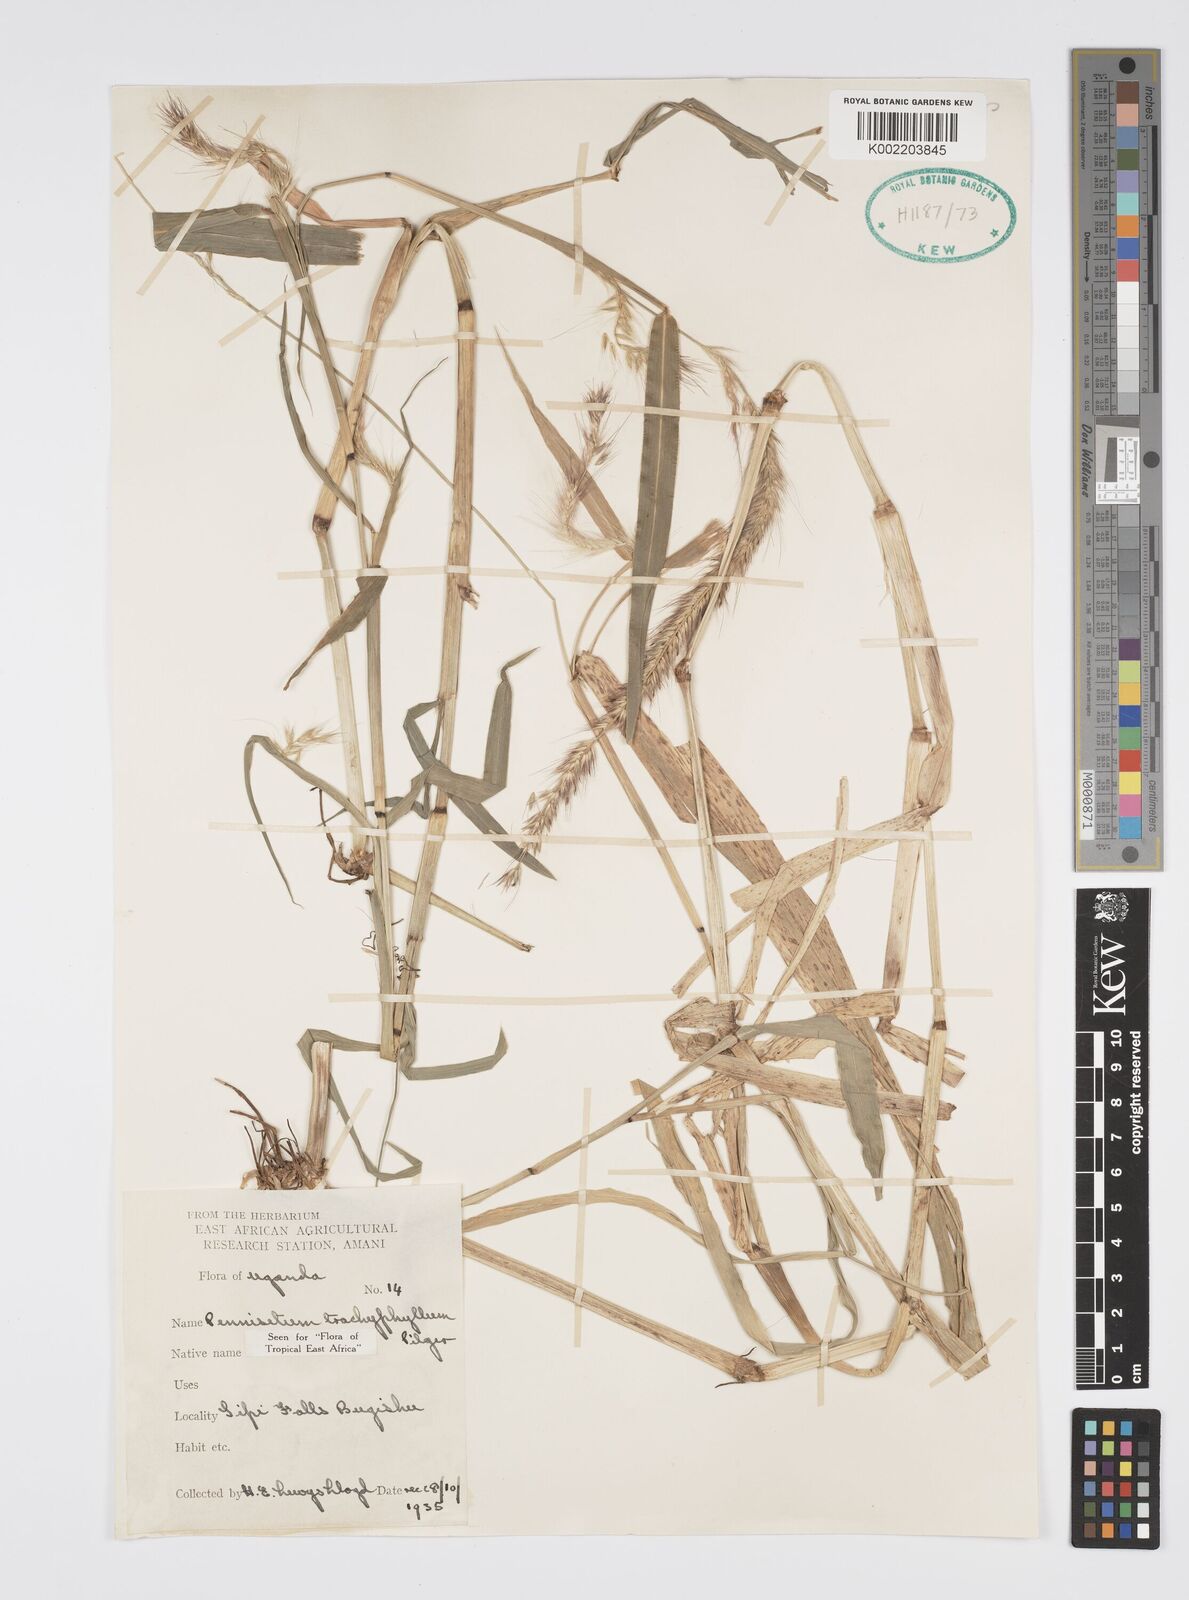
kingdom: Plantae
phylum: Tracheophyta
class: Liliopsida
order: Poales
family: Poaceae
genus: Cenchrus
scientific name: Cenchrus trachyphyllus
